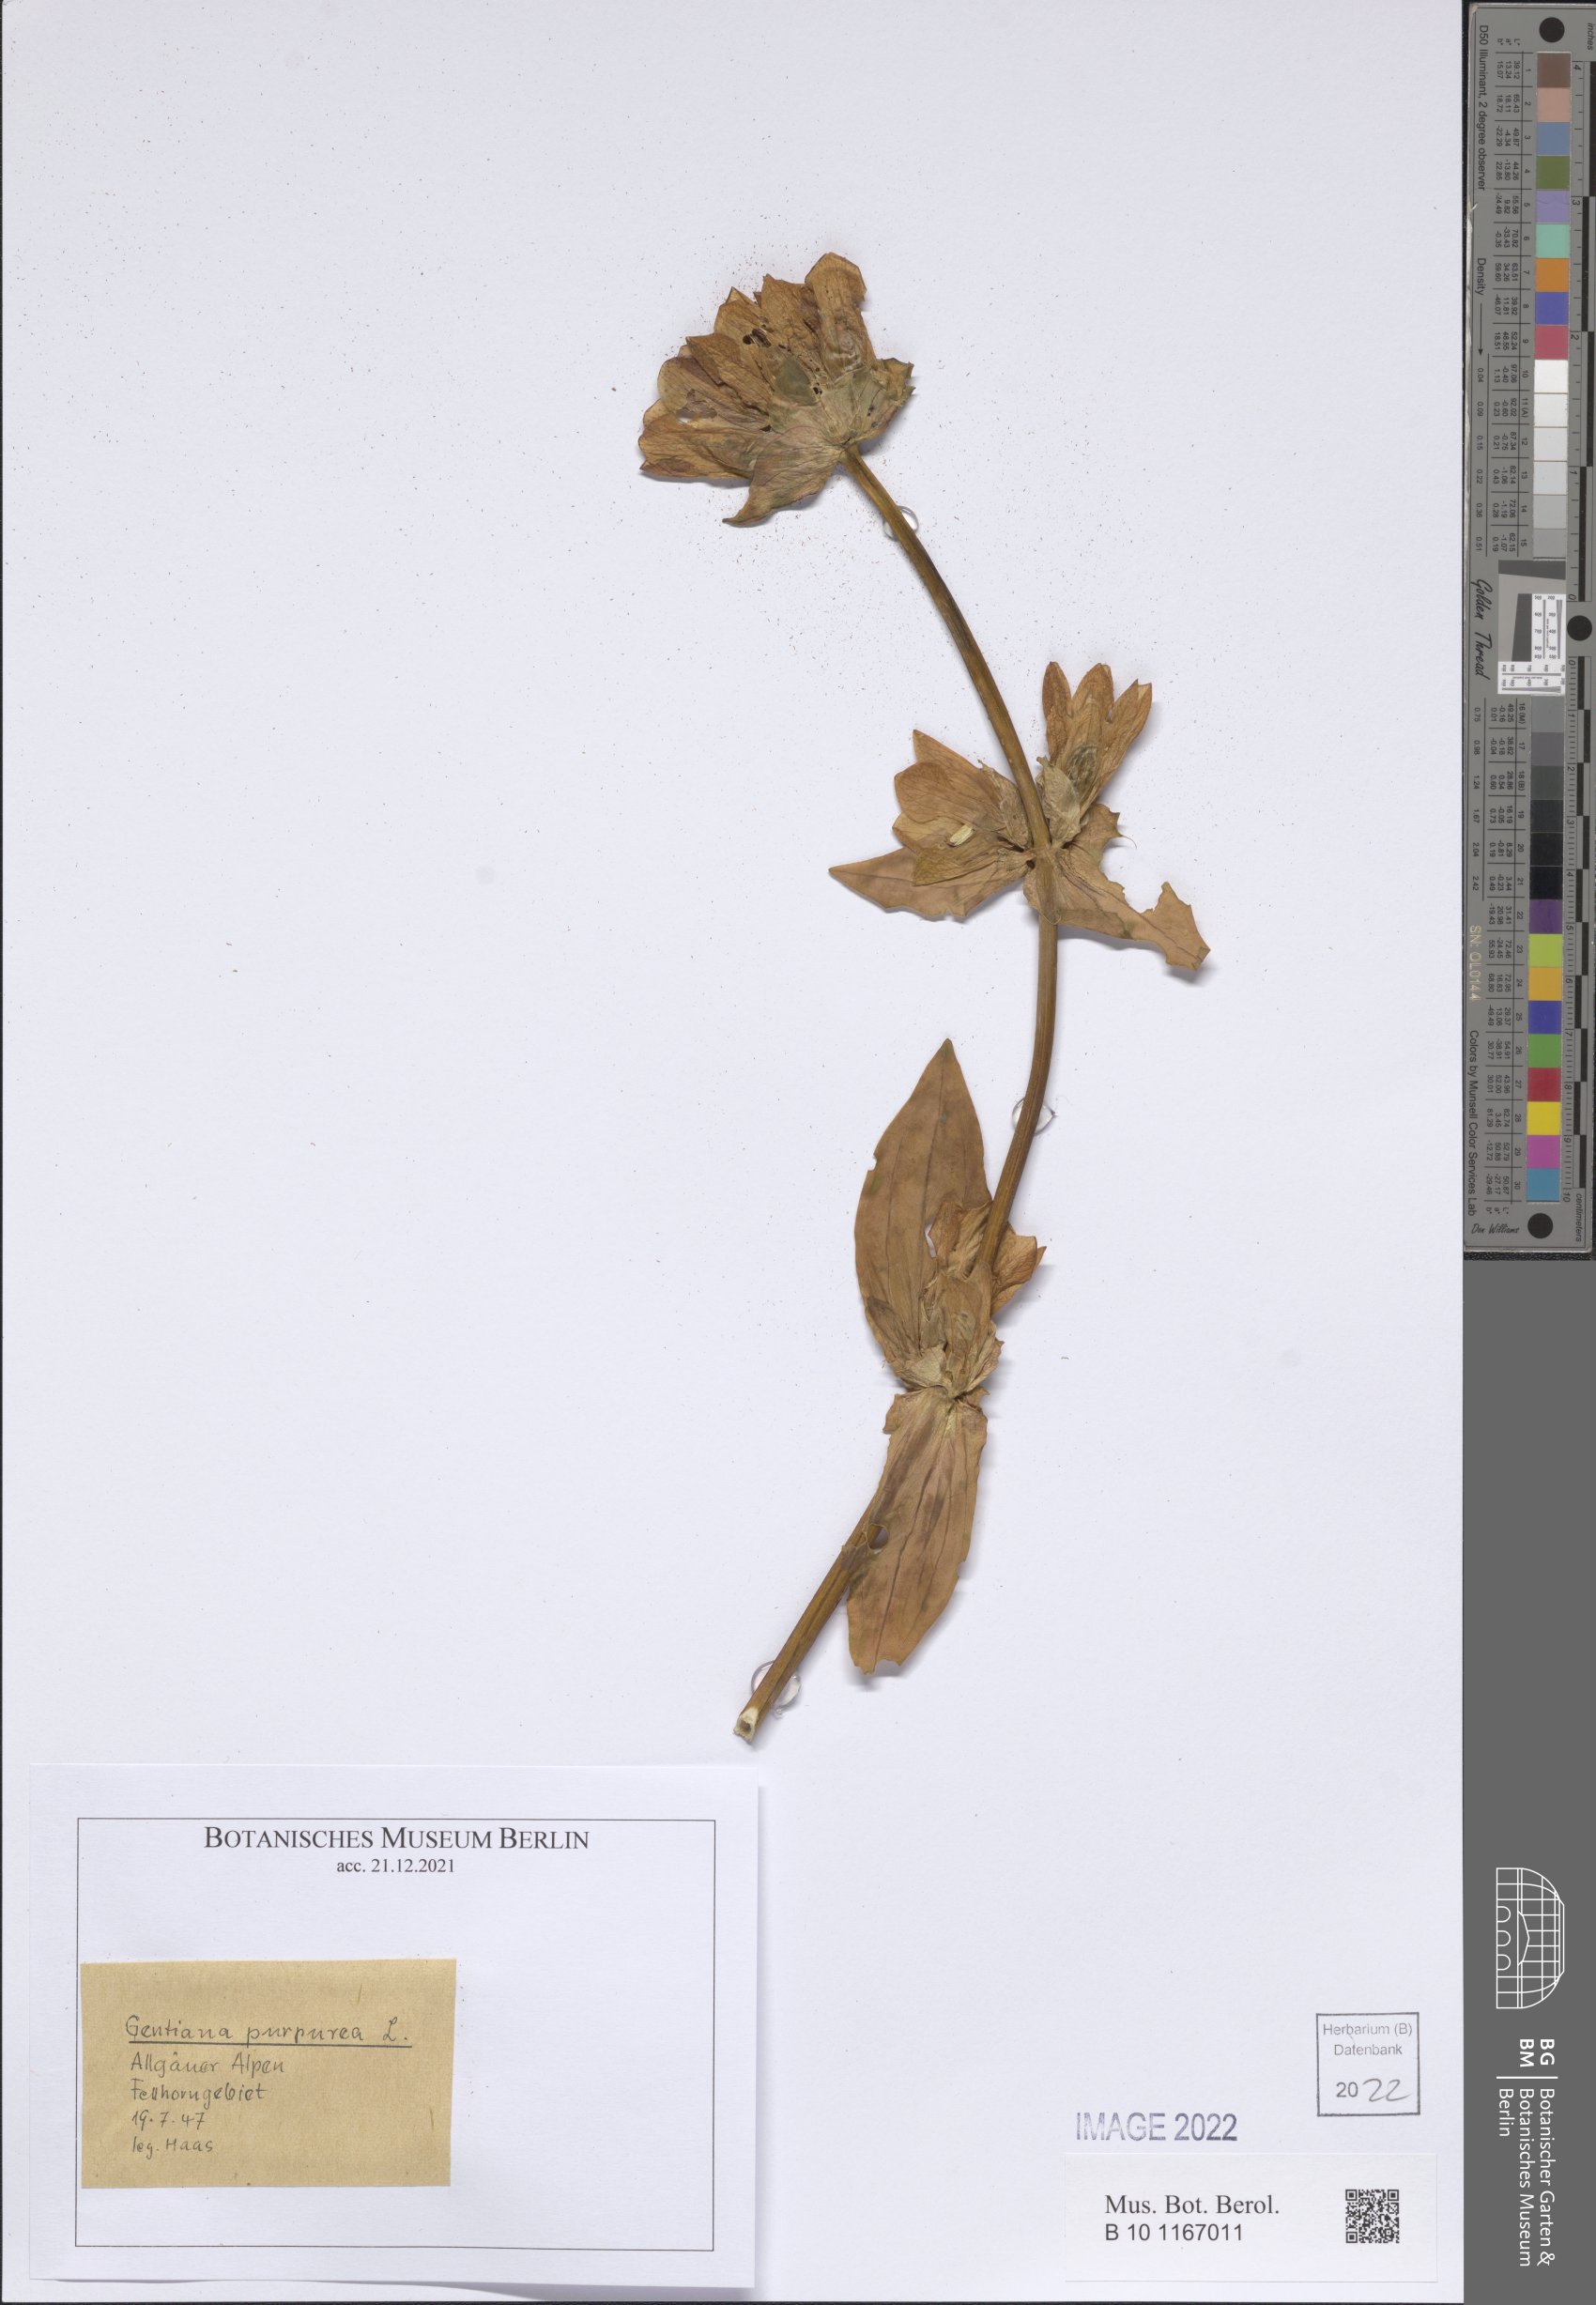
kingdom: Plantae
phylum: Tracheophyta
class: Magnoliopsida
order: Gentianales
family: Gentianaceae
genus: Gentiana
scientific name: Gentiana purpurea
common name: Purple gentian
